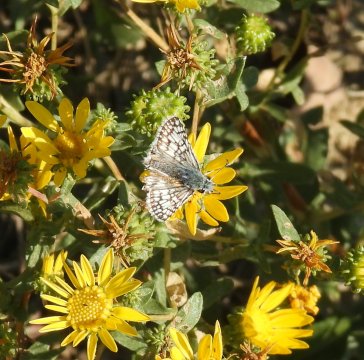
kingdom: Animalia
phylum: Arthropoda
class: Insecta
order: Lepidoptera
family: Hesperiidae
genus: Pyrgus
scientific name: Pyrgus communis
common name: Common Checkered-Skipper
